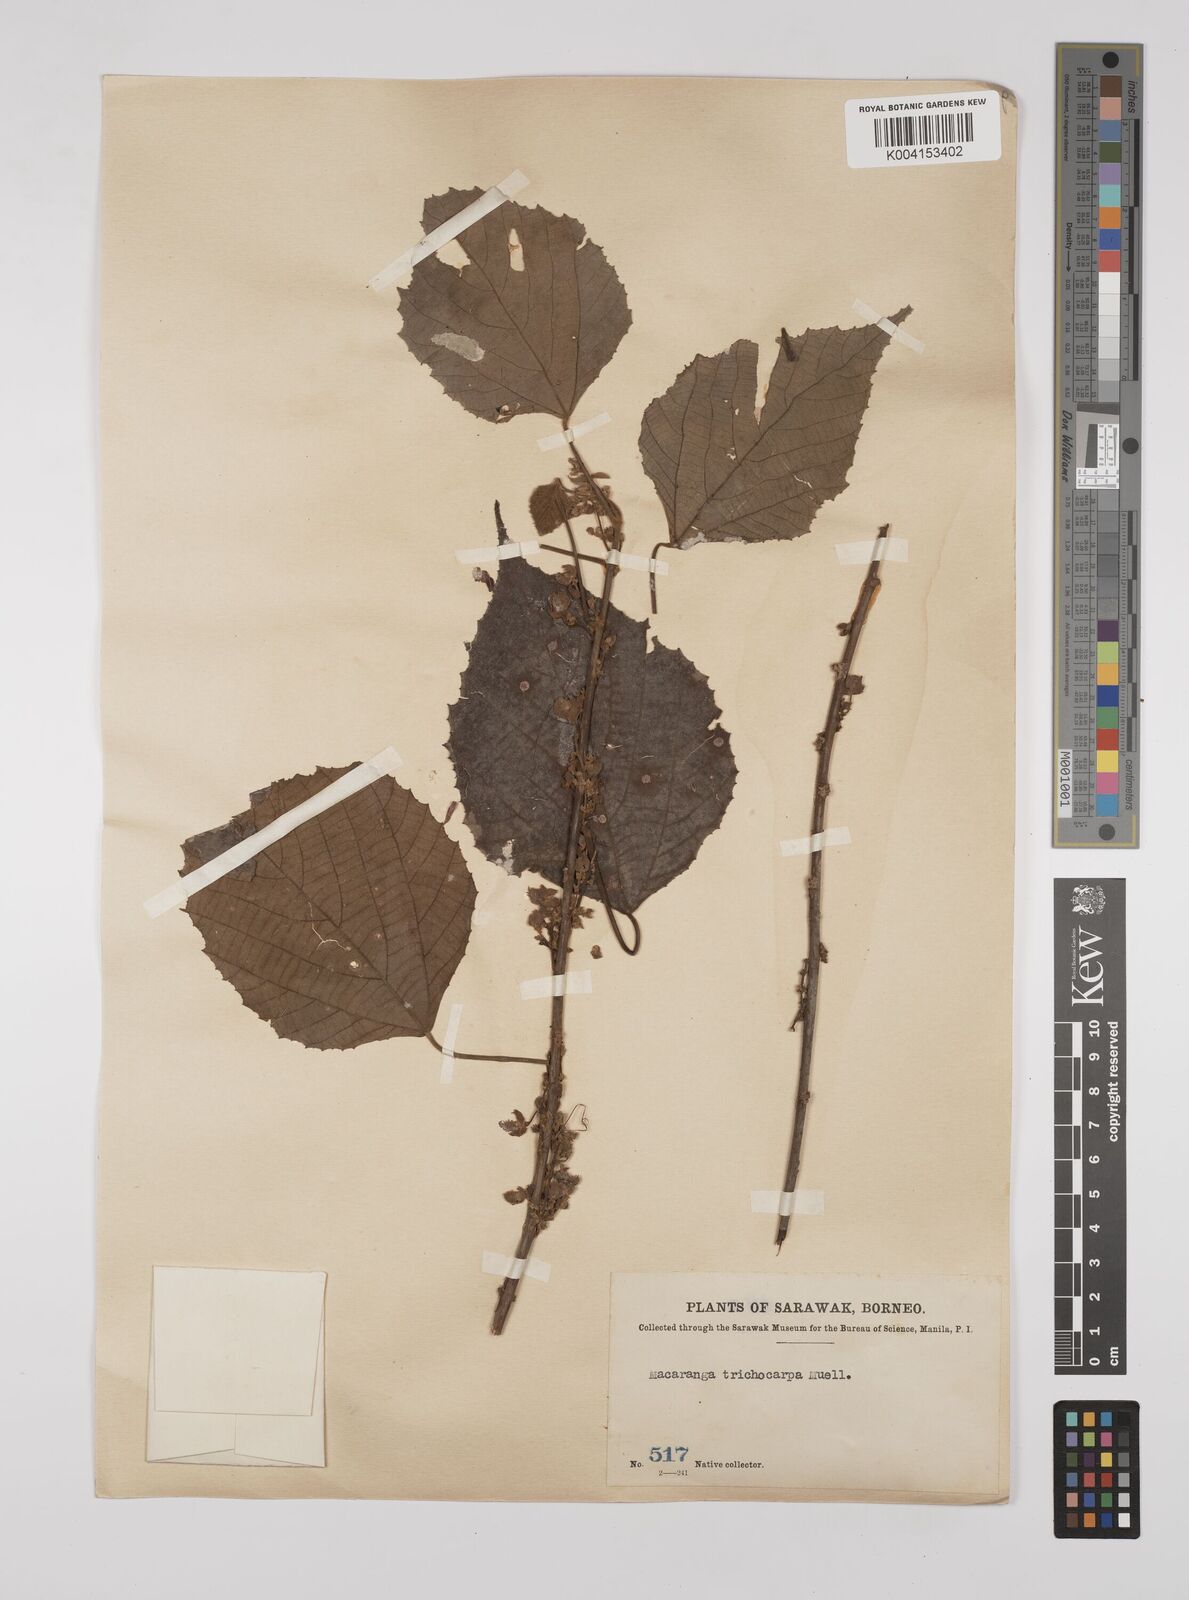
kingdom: Plantae
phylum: Tracheophyta
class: Magnoliopsida
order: Malpighiales
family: Euphorbiaceae
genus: Macaranga
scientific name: Macaranga trichocarpa
